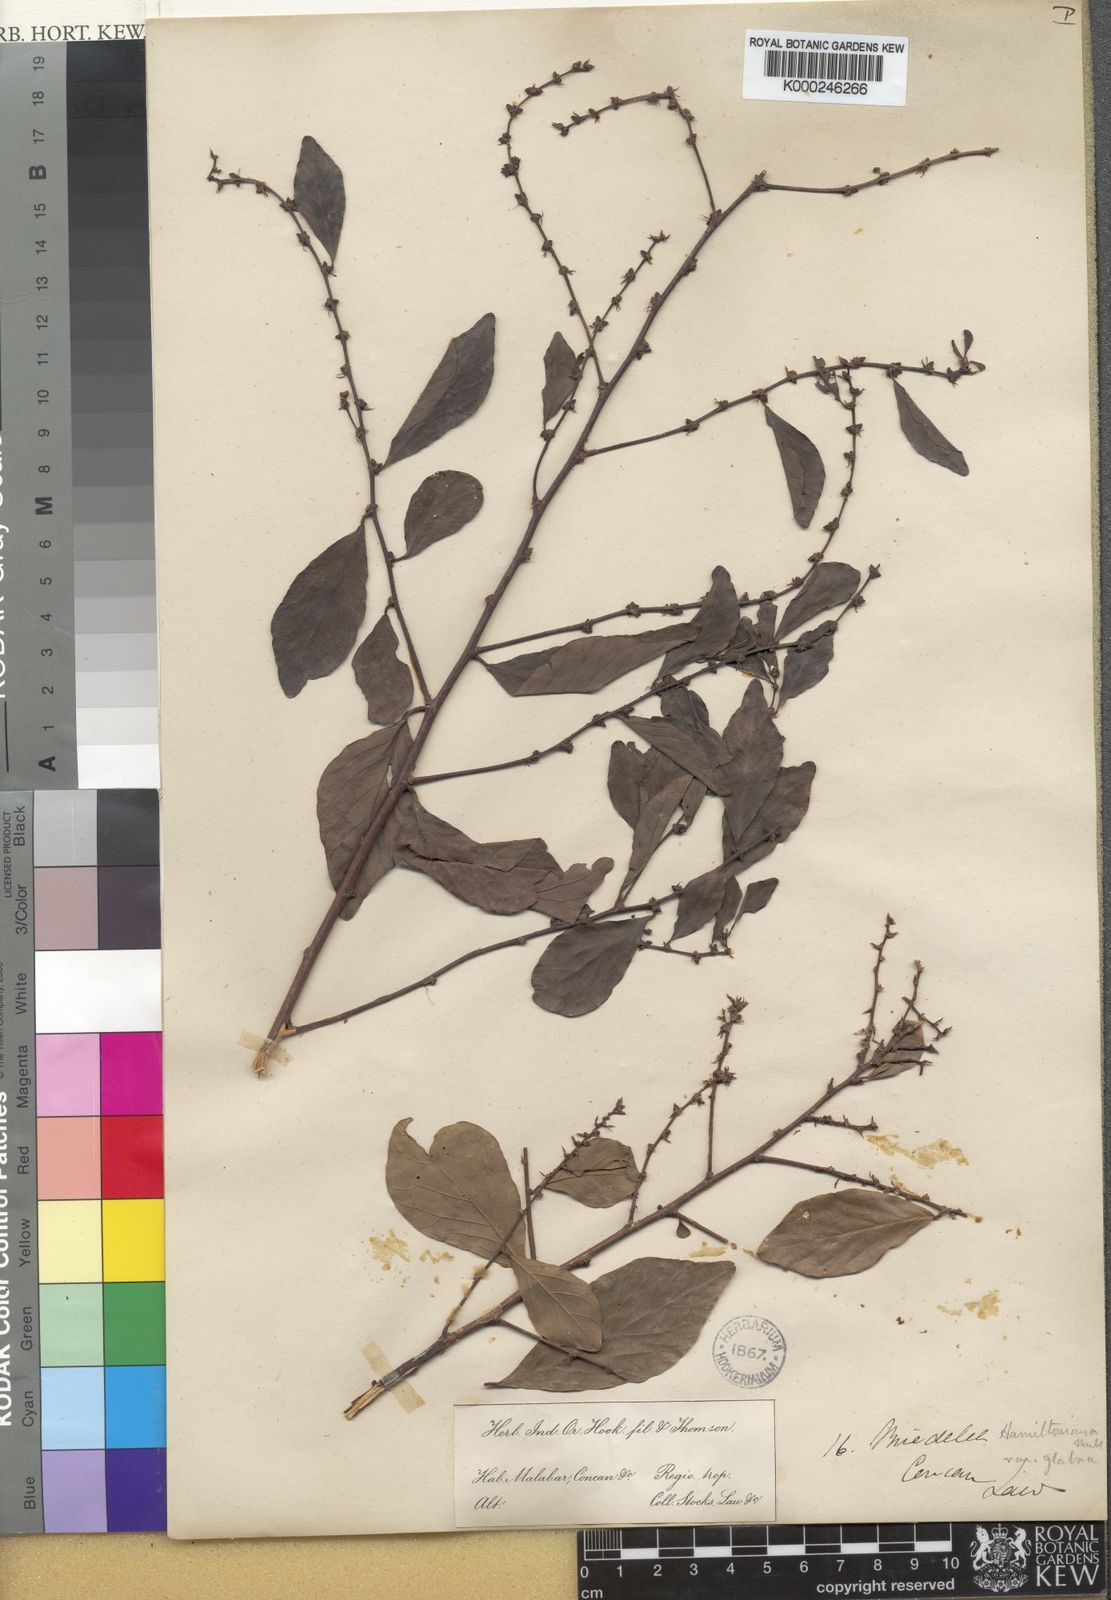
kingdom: Plantae
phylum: Tracheophyta
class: Magnoliopsida
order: Malpighiales
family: Phyllanthaceae
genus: Bridelia
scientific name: Bridelia retusa
